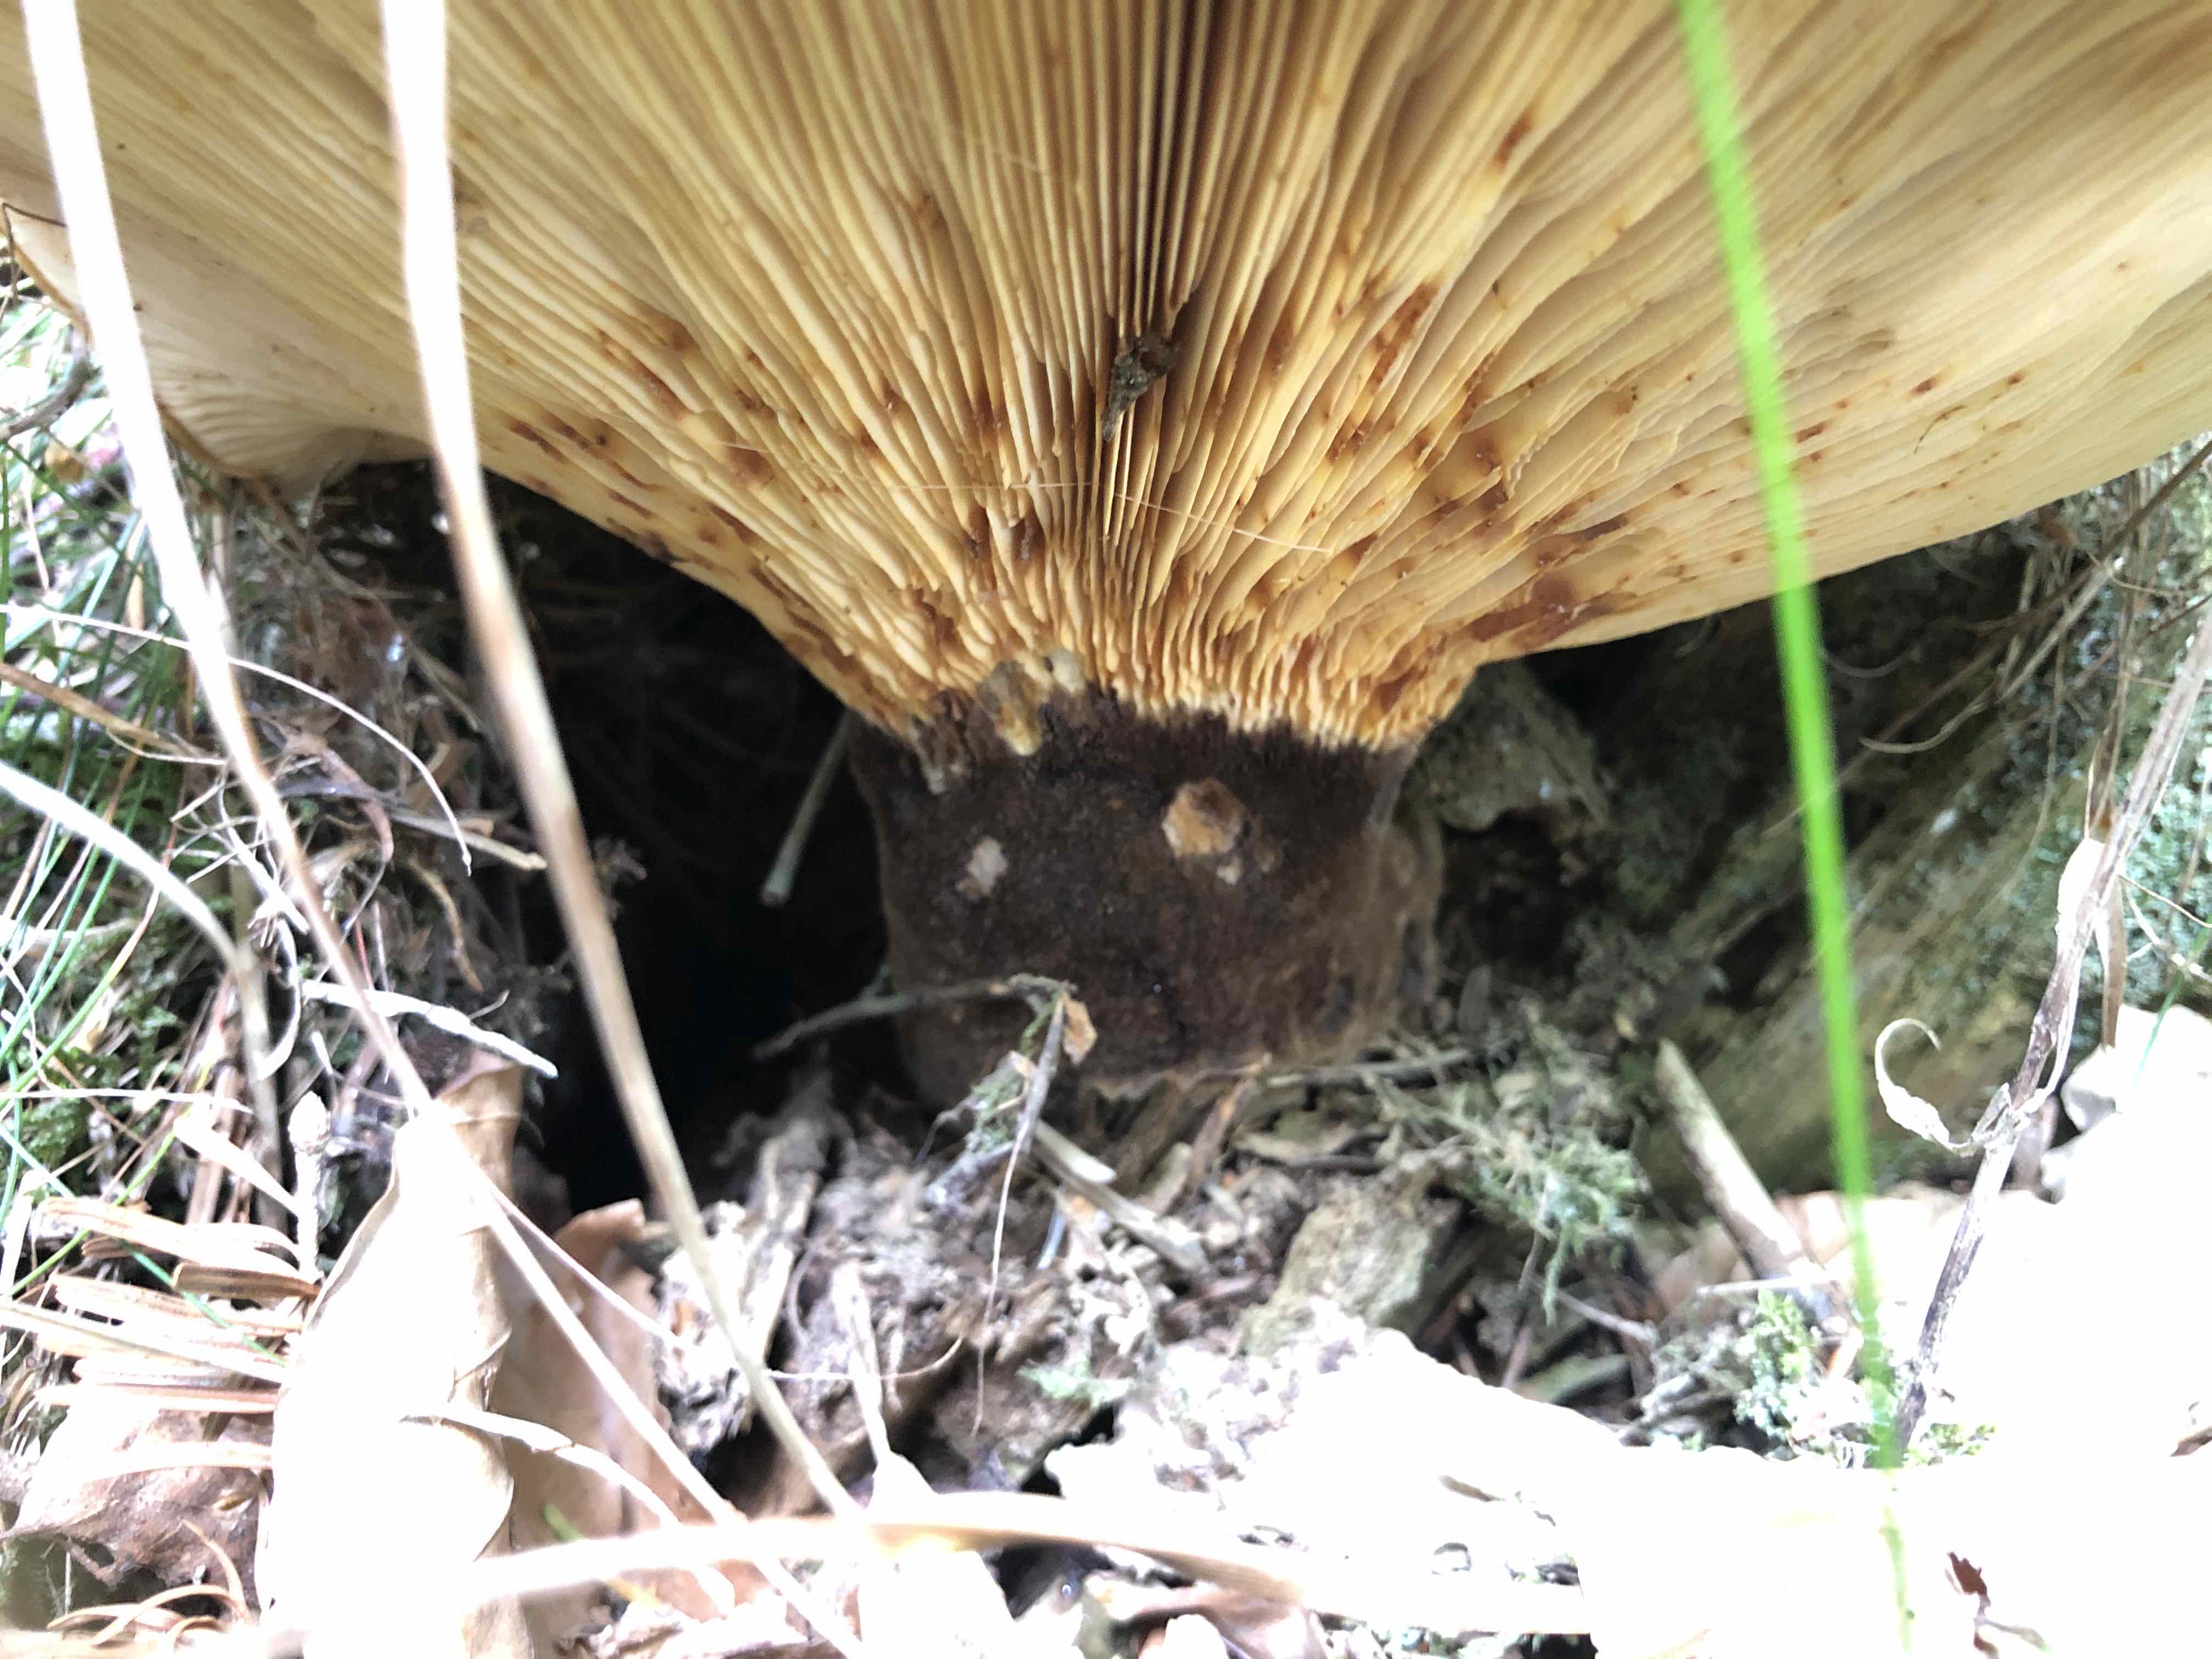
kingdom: Fungi
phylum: Basidiomycota
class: Agaricomycetes
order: Boletales
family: Tapinellaceae
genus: Tapinella
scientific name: Tapinella atrotomentosa
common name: sortfiltet viftesvamp
